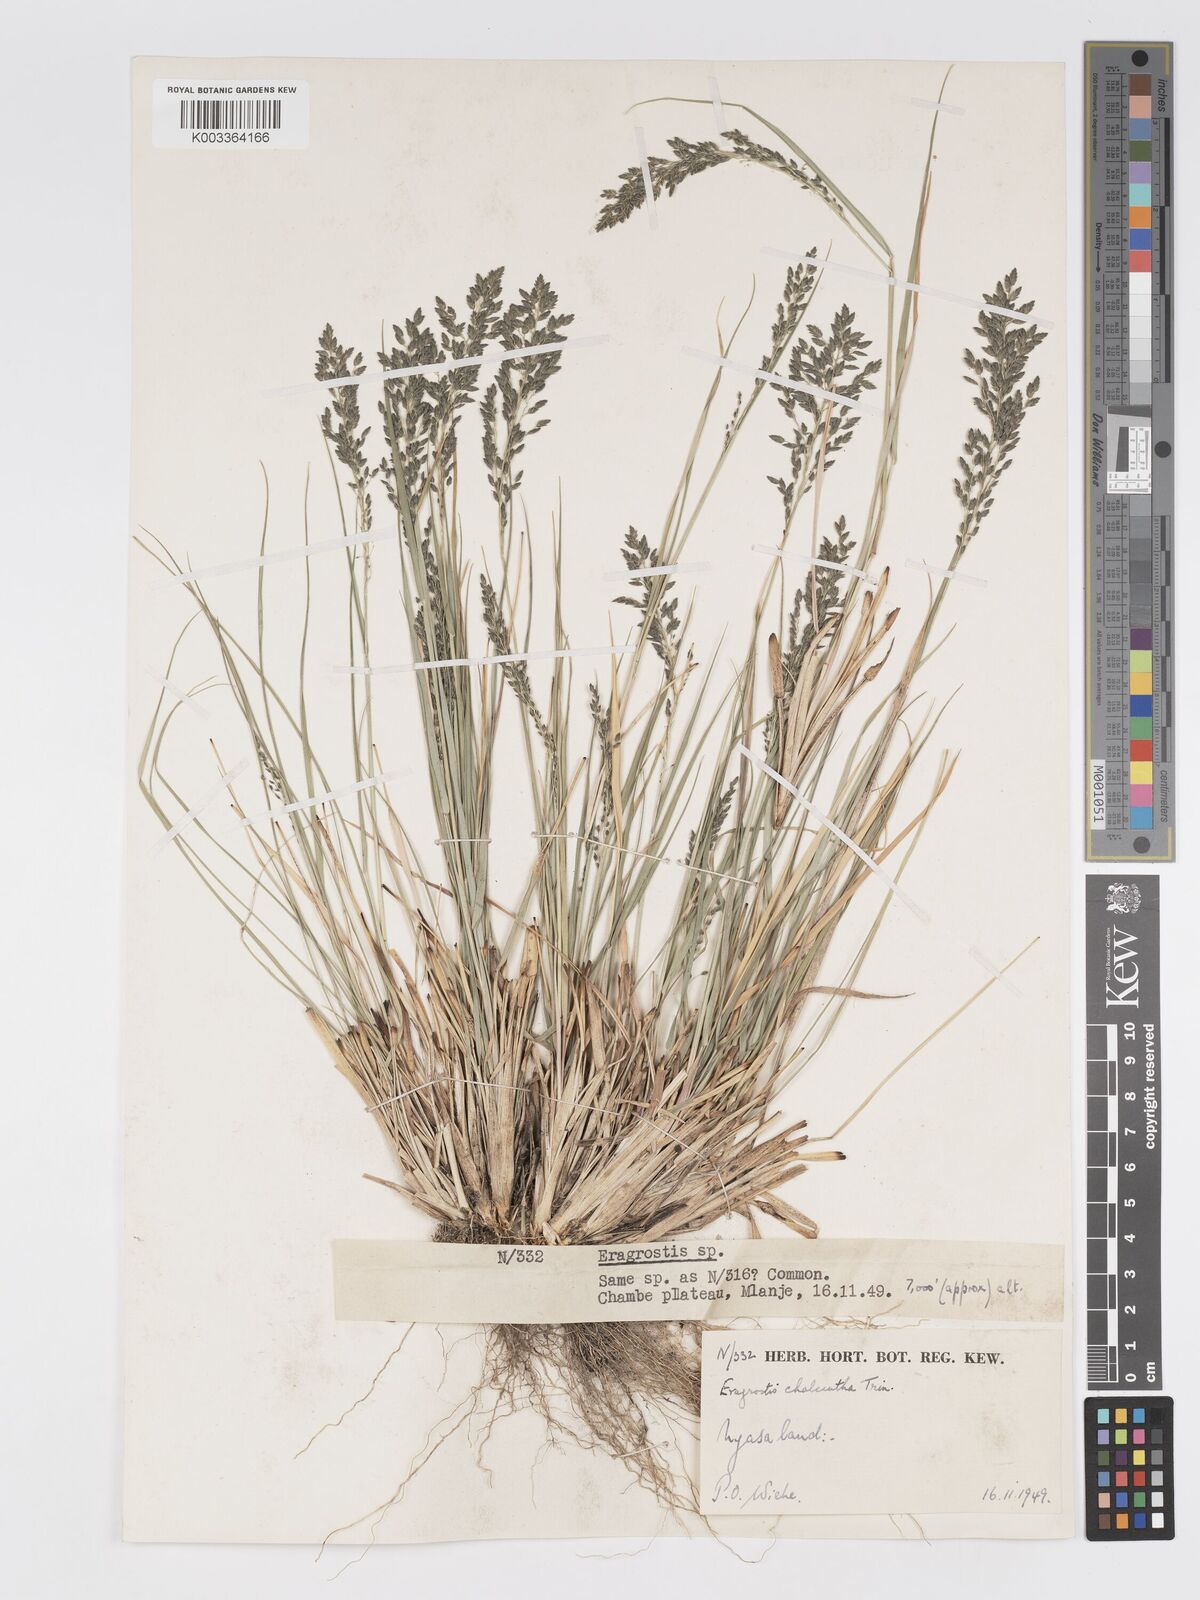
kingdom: Plantae
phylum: Tracheophyta
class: Liliopsida
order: Poales
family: Poaceae
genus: Eragrostis
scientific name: Eragrostis racemosa
